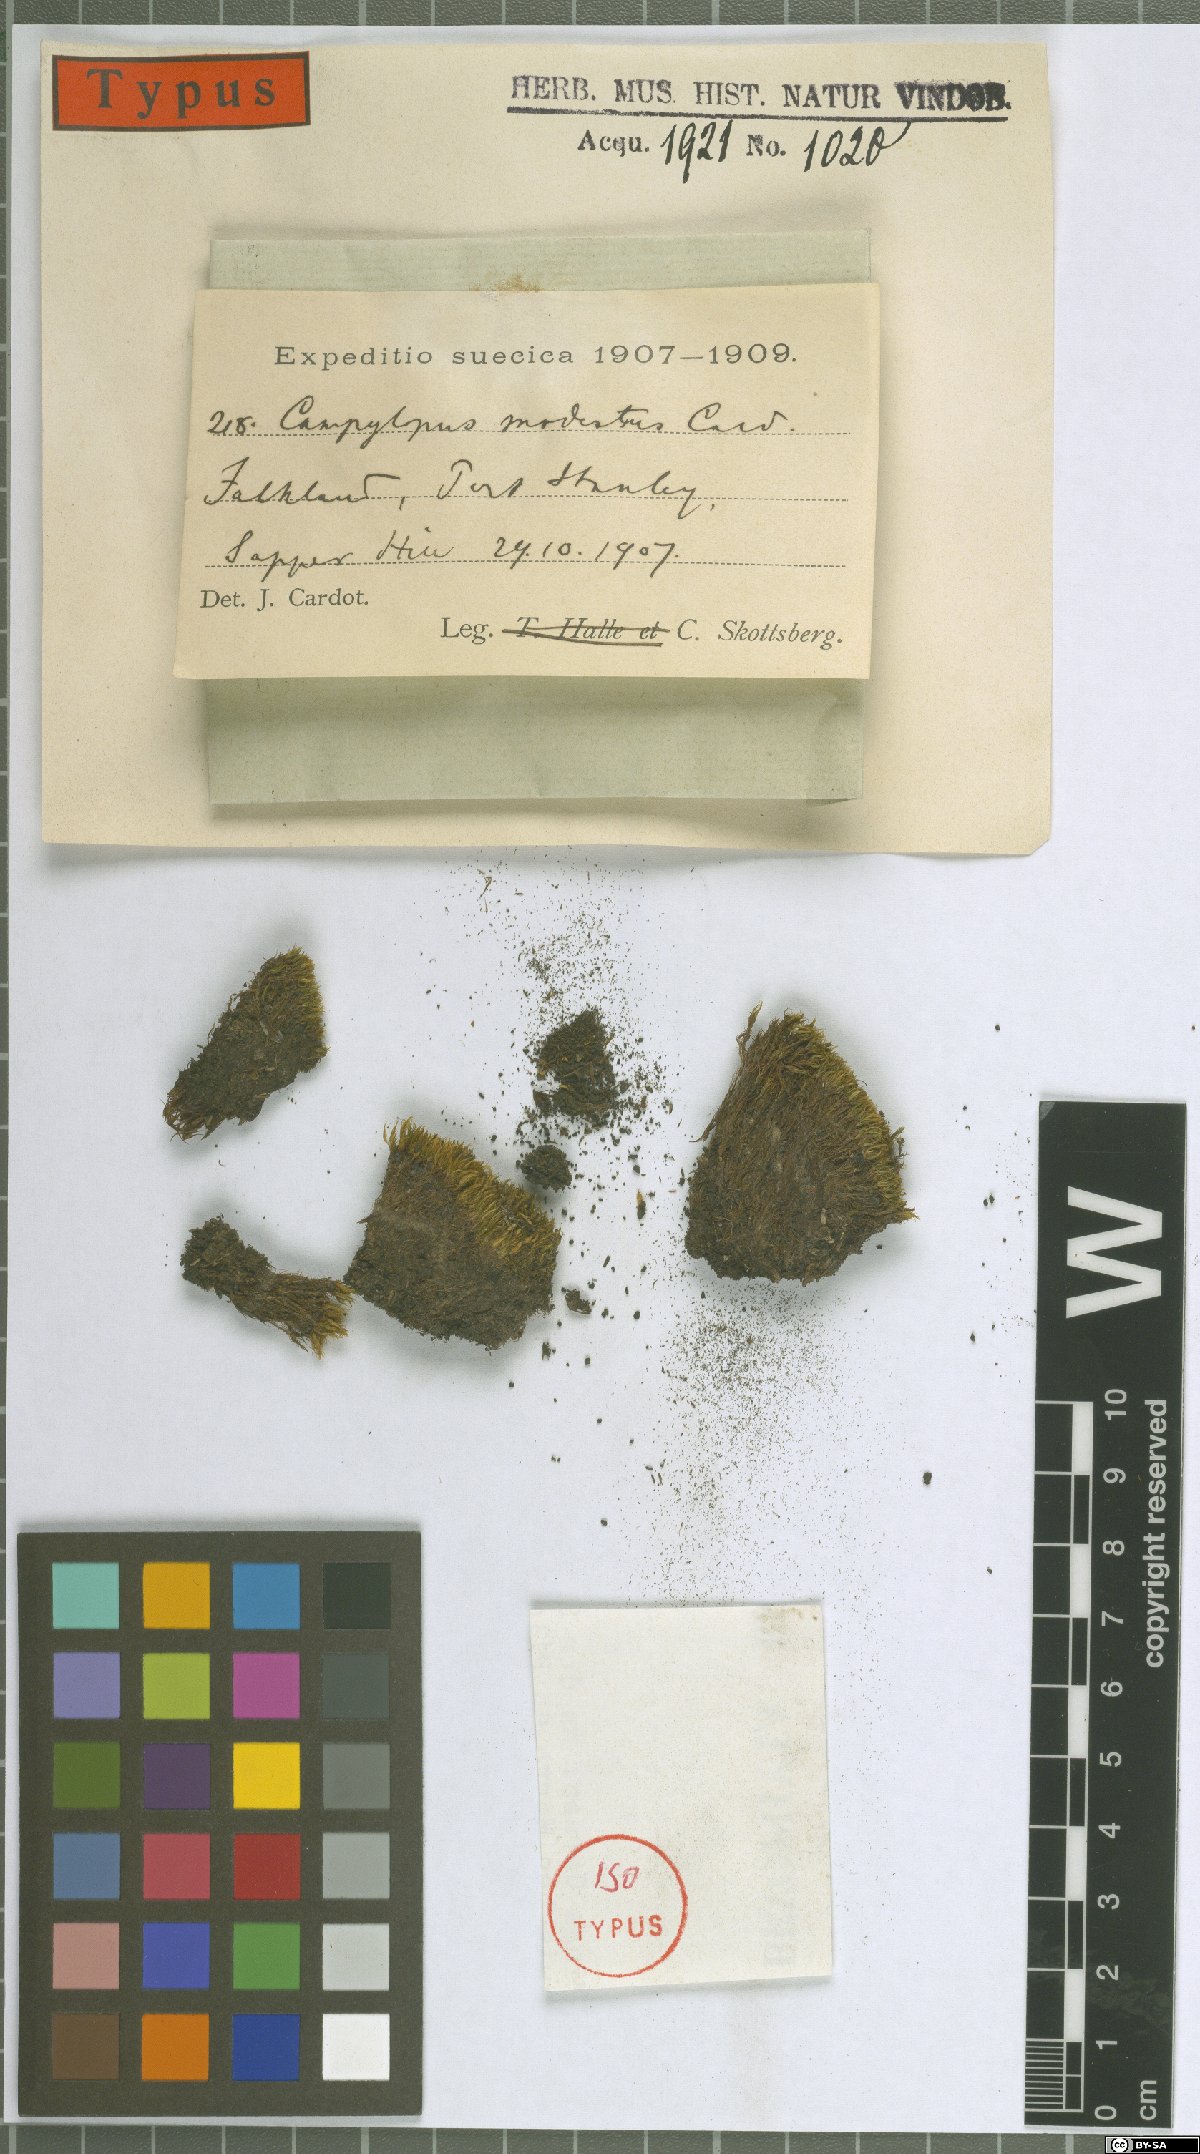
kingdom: Plantae
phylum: Bryophyta
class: Bryopsida
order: Dicranales
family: Leucobryaceae
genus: Campylopus
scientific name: Campylopus modestus
